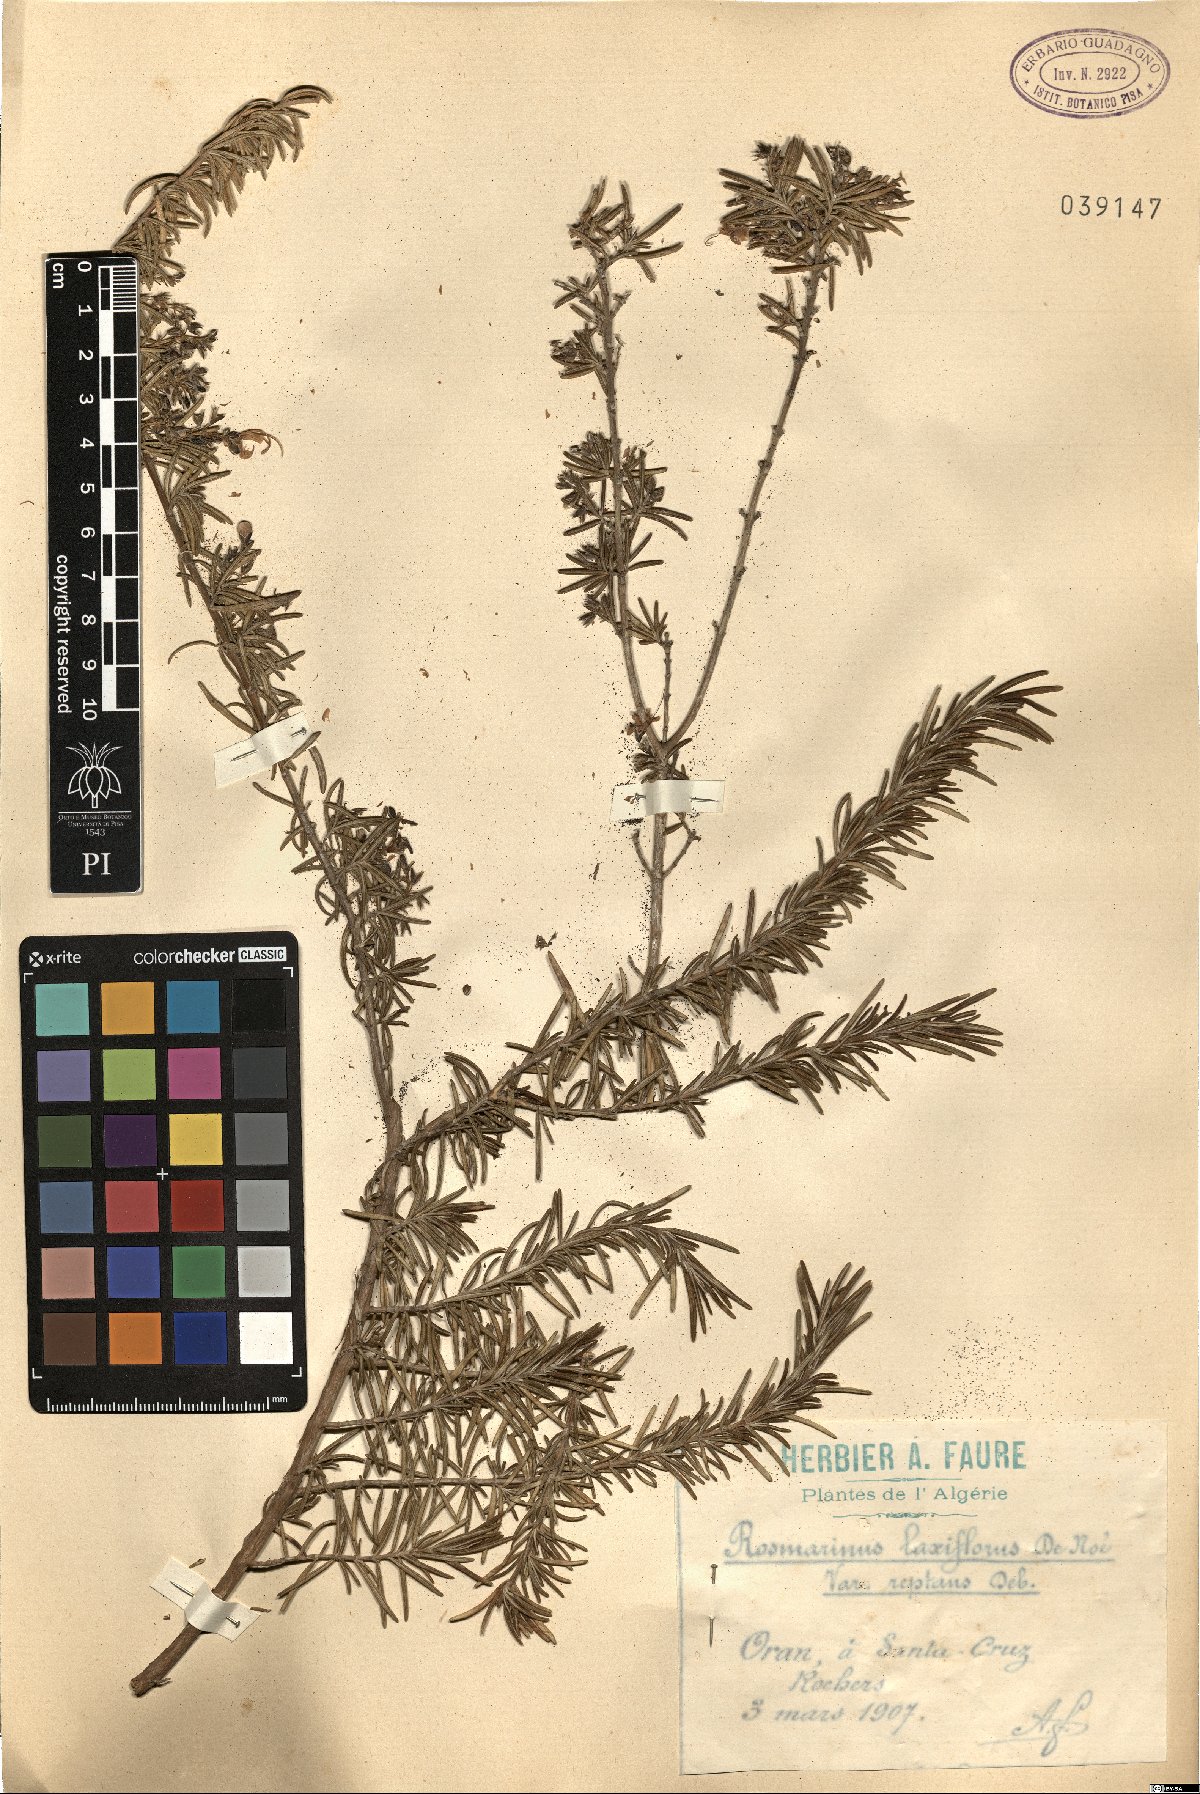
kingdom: Plantae
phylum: Tracheophyta
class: Magnoliopsida
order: Lamiales
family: Lamiaceae
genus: Salvia
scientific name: Salvia rosmarinus
